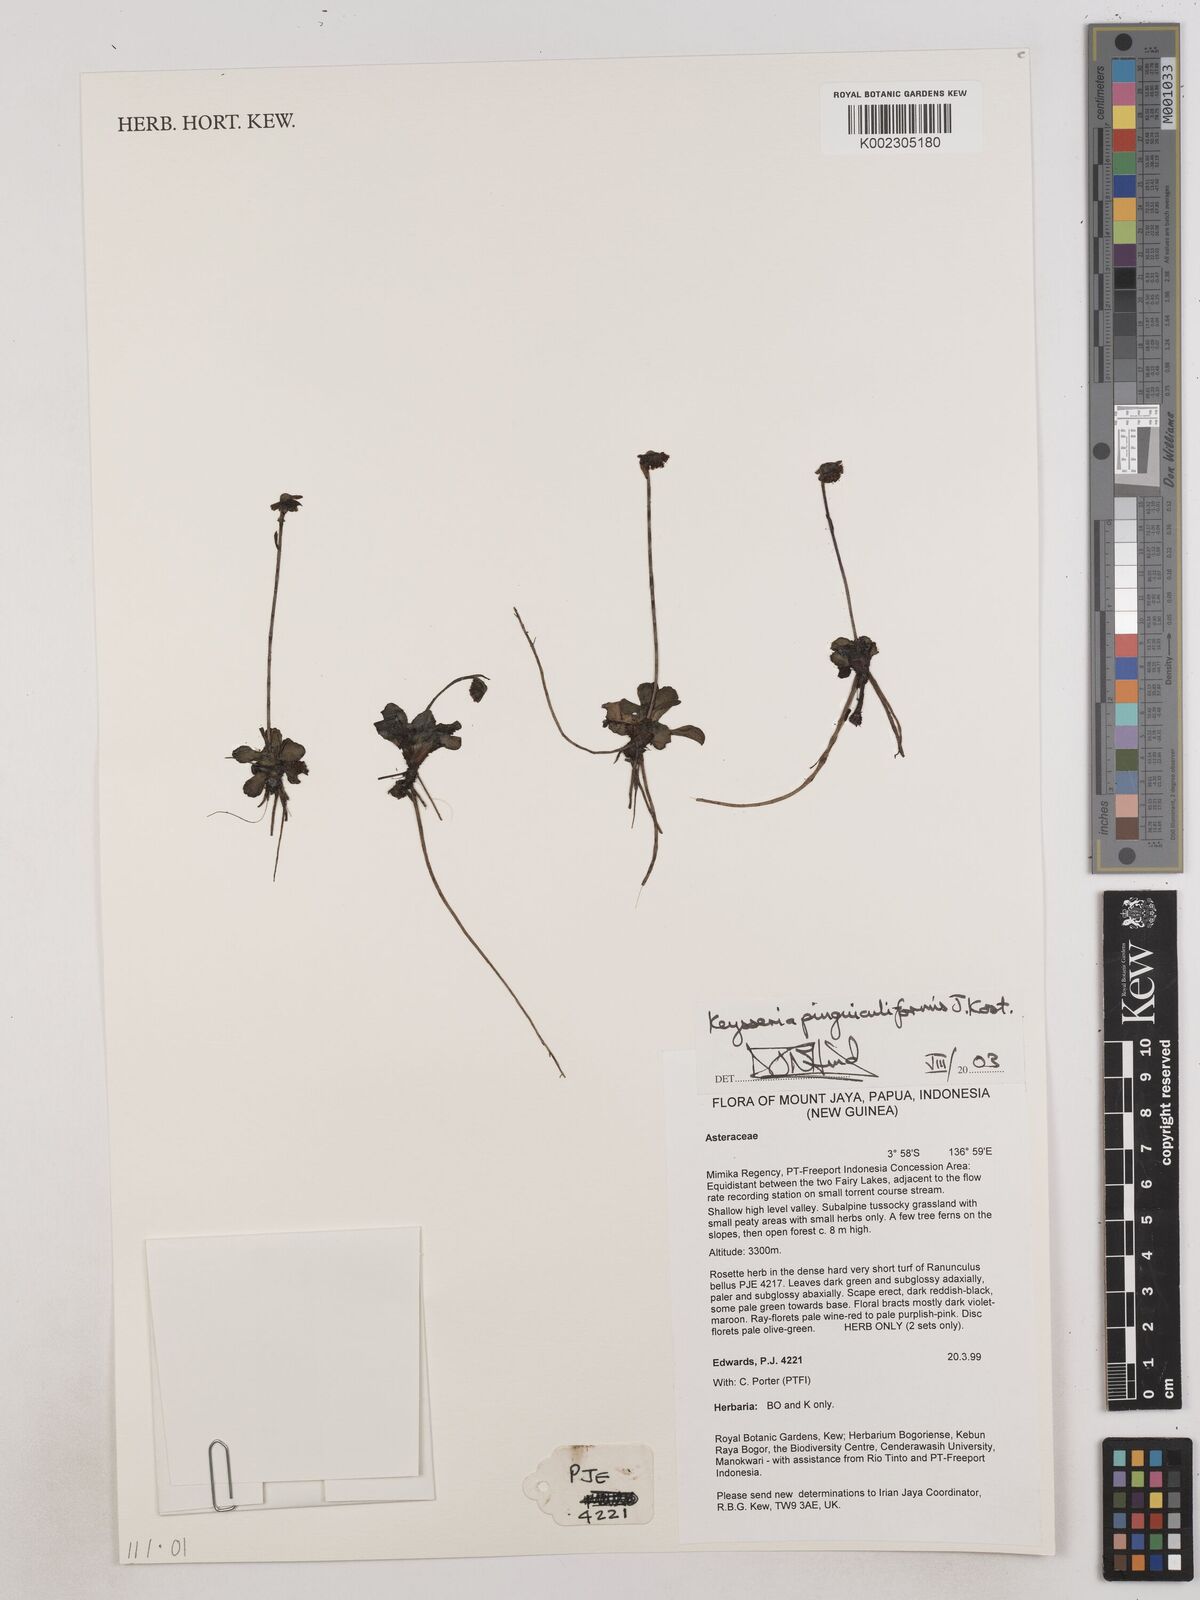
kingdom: Plantae
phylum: Tracheophyta
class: Magnoliopsida
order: Asterales
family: Asteraceae
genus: Keysseria
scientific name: Keysseria pinguiculiformis
